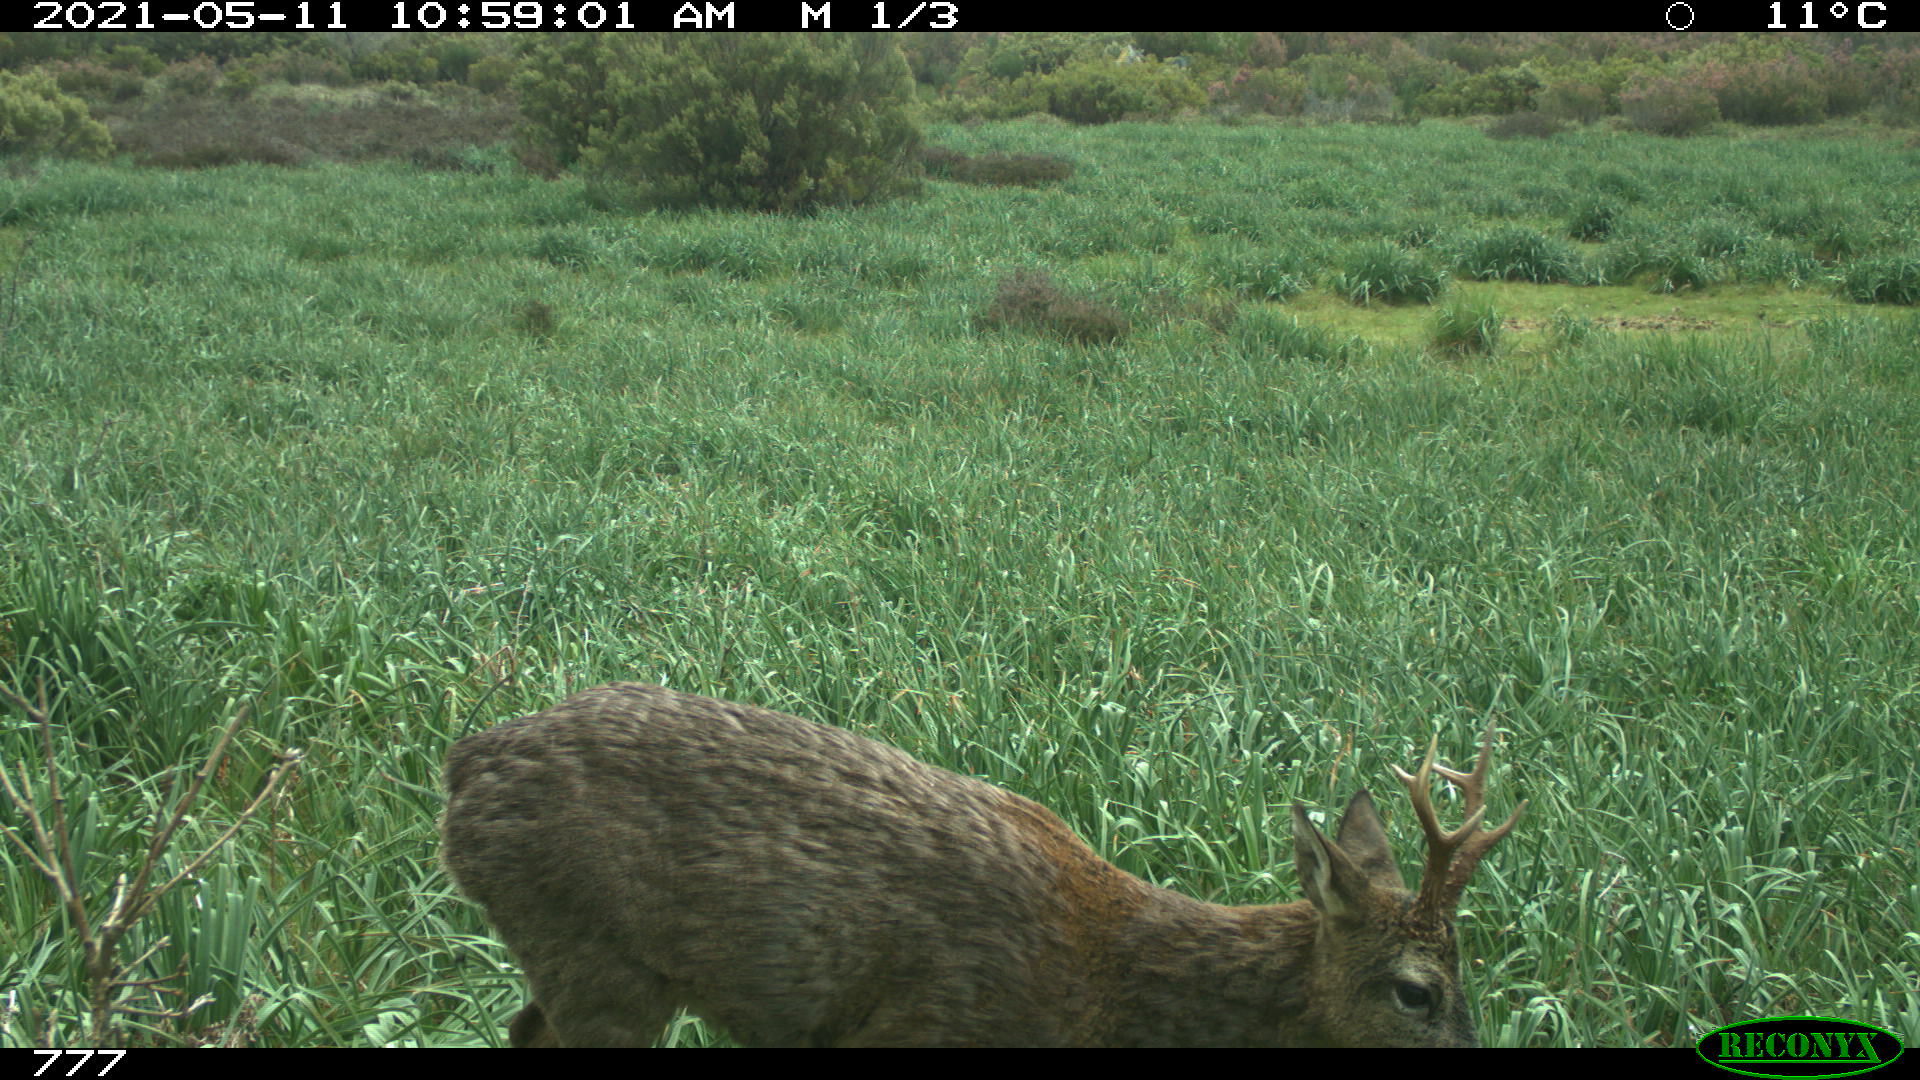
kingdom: Animalia
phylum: Chordata
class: Mammalia
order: Artiodactyla
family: Cervidae
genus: Capreolus
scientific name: Capreolus capreolus
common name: Western roe deer
